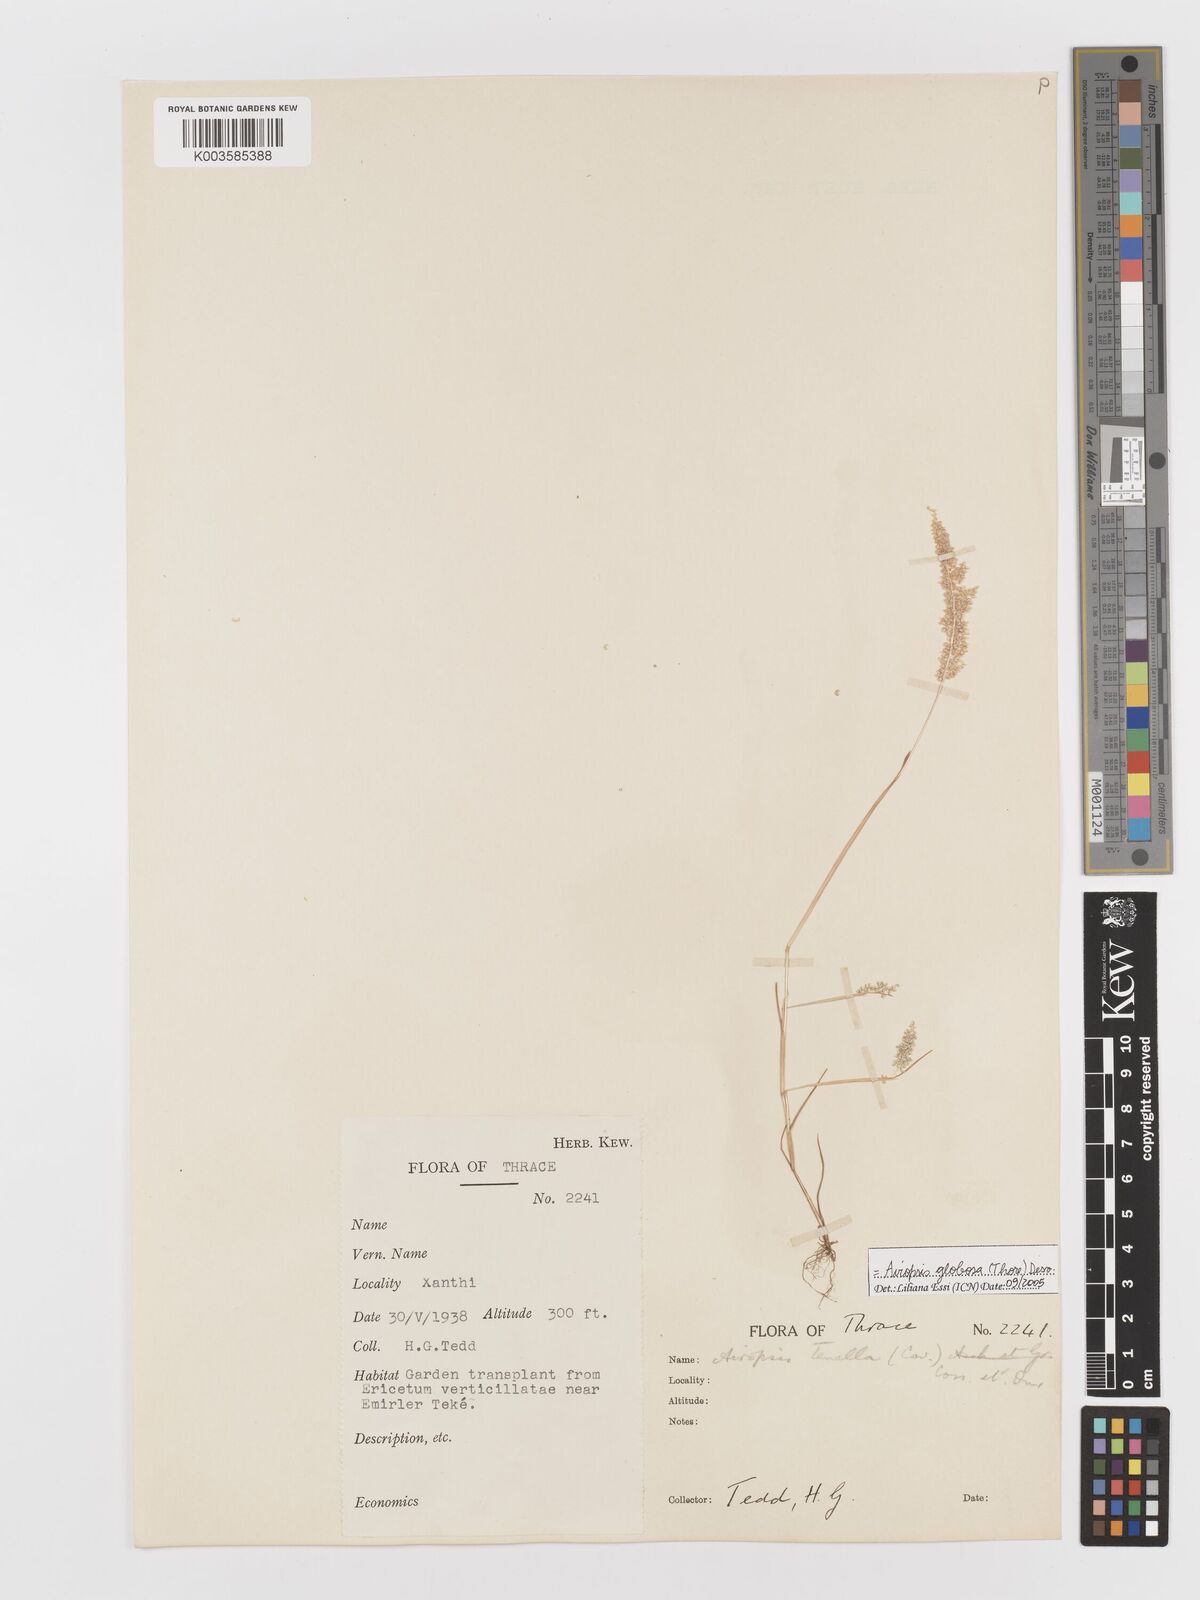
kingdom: Plantae
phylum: Tracheophyta
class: Liliopsida
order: Poales
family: Poaceae
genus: Airopsis
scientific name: Airopsis tenella
